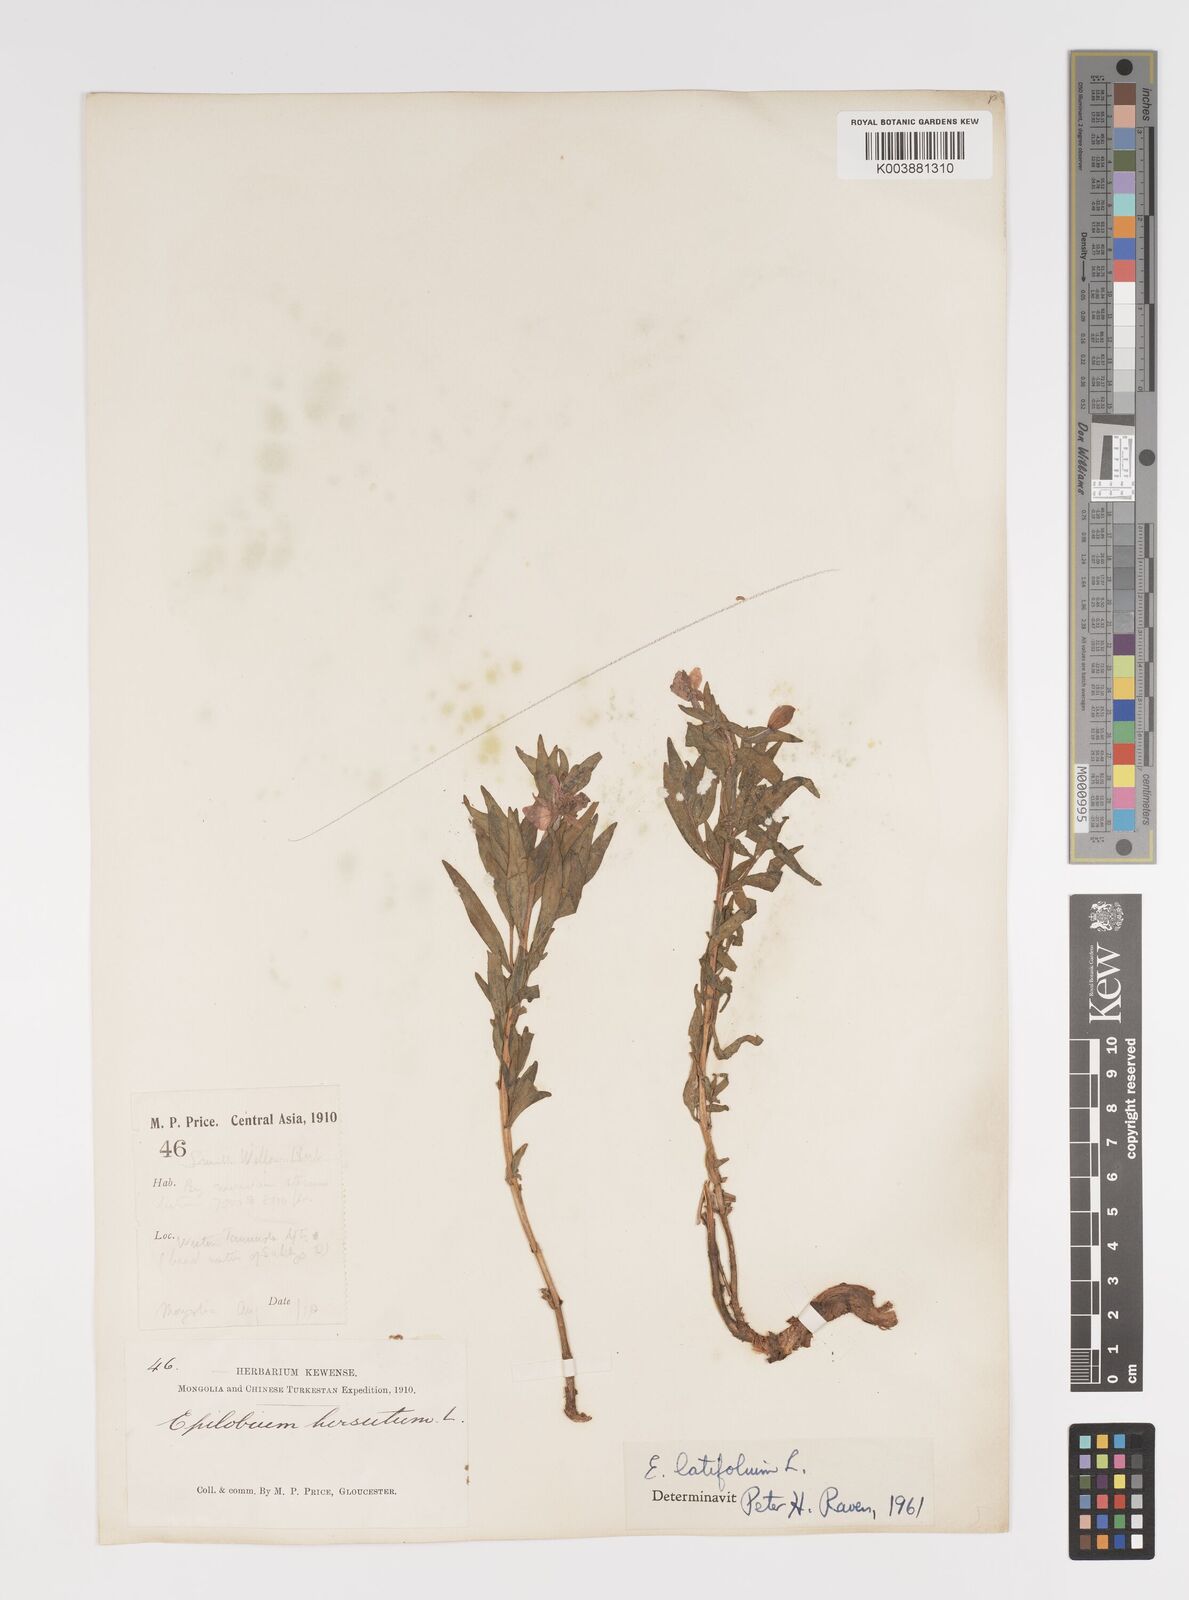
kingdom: Plantae
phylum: Tracheophyta
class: Magnoliopsida
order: Myrtales
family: Onagraceae
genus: Chamaenerion
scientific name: Chamaenerion latifolium
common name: Dwarf fireweed
